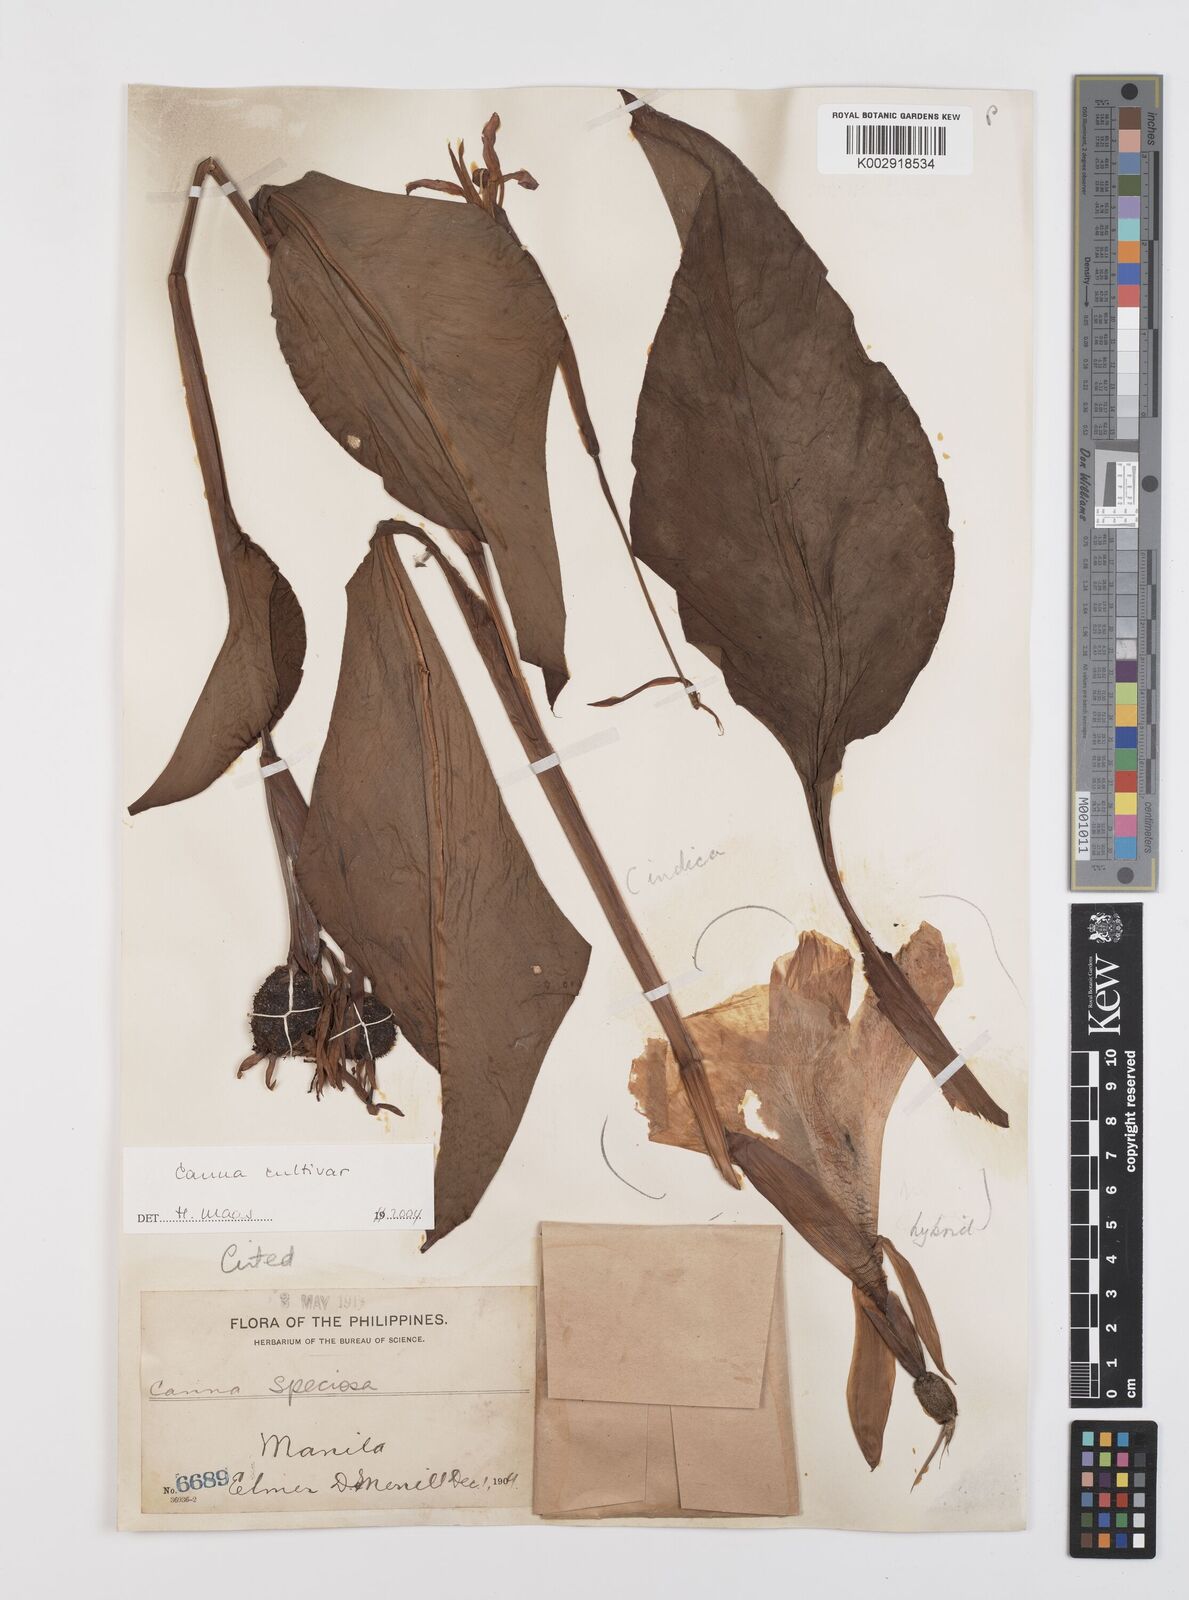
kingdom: Plantae
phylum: Tracheophyta
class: Liliopsida
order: Zingiberales
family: Cannaceae
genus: Canna
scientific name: Canna
